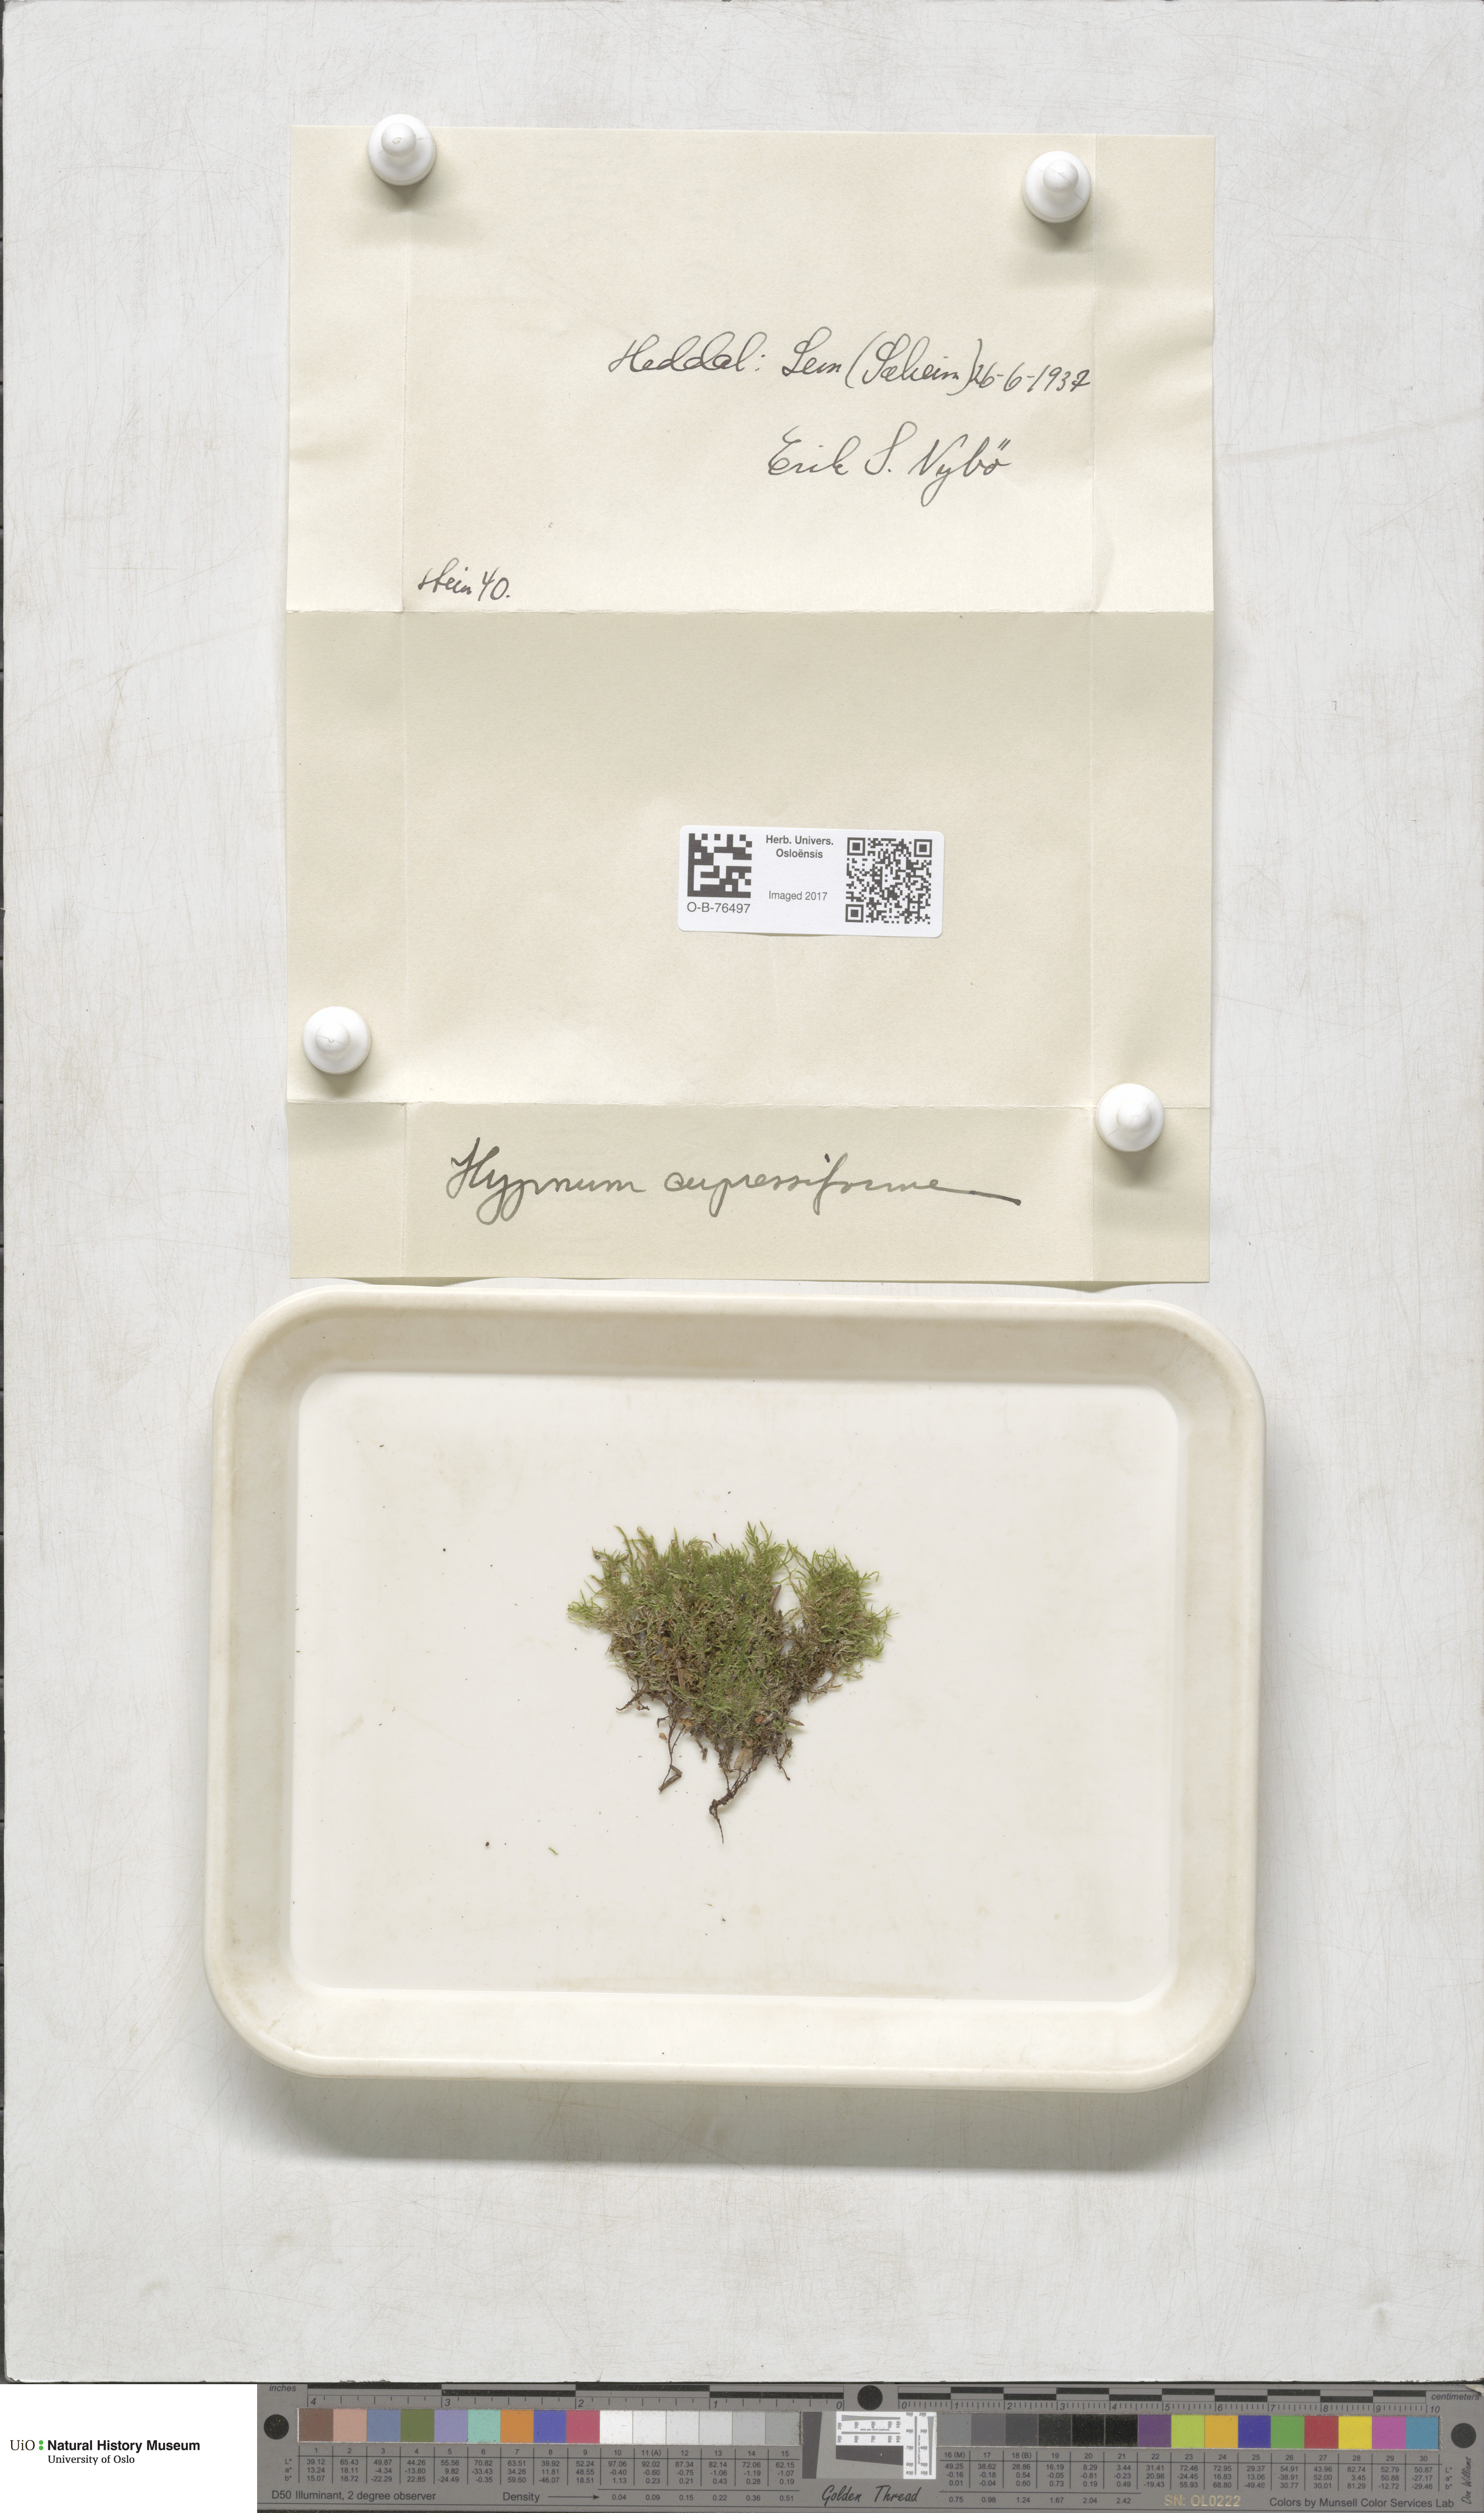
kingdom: Plantae
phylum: Bryophyta
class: Bryopsida
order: Hypnales
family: Hypnaceae
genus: Hypnum
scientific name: Hypnum cupressiforme
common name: Cypress-leaved plait-moss
